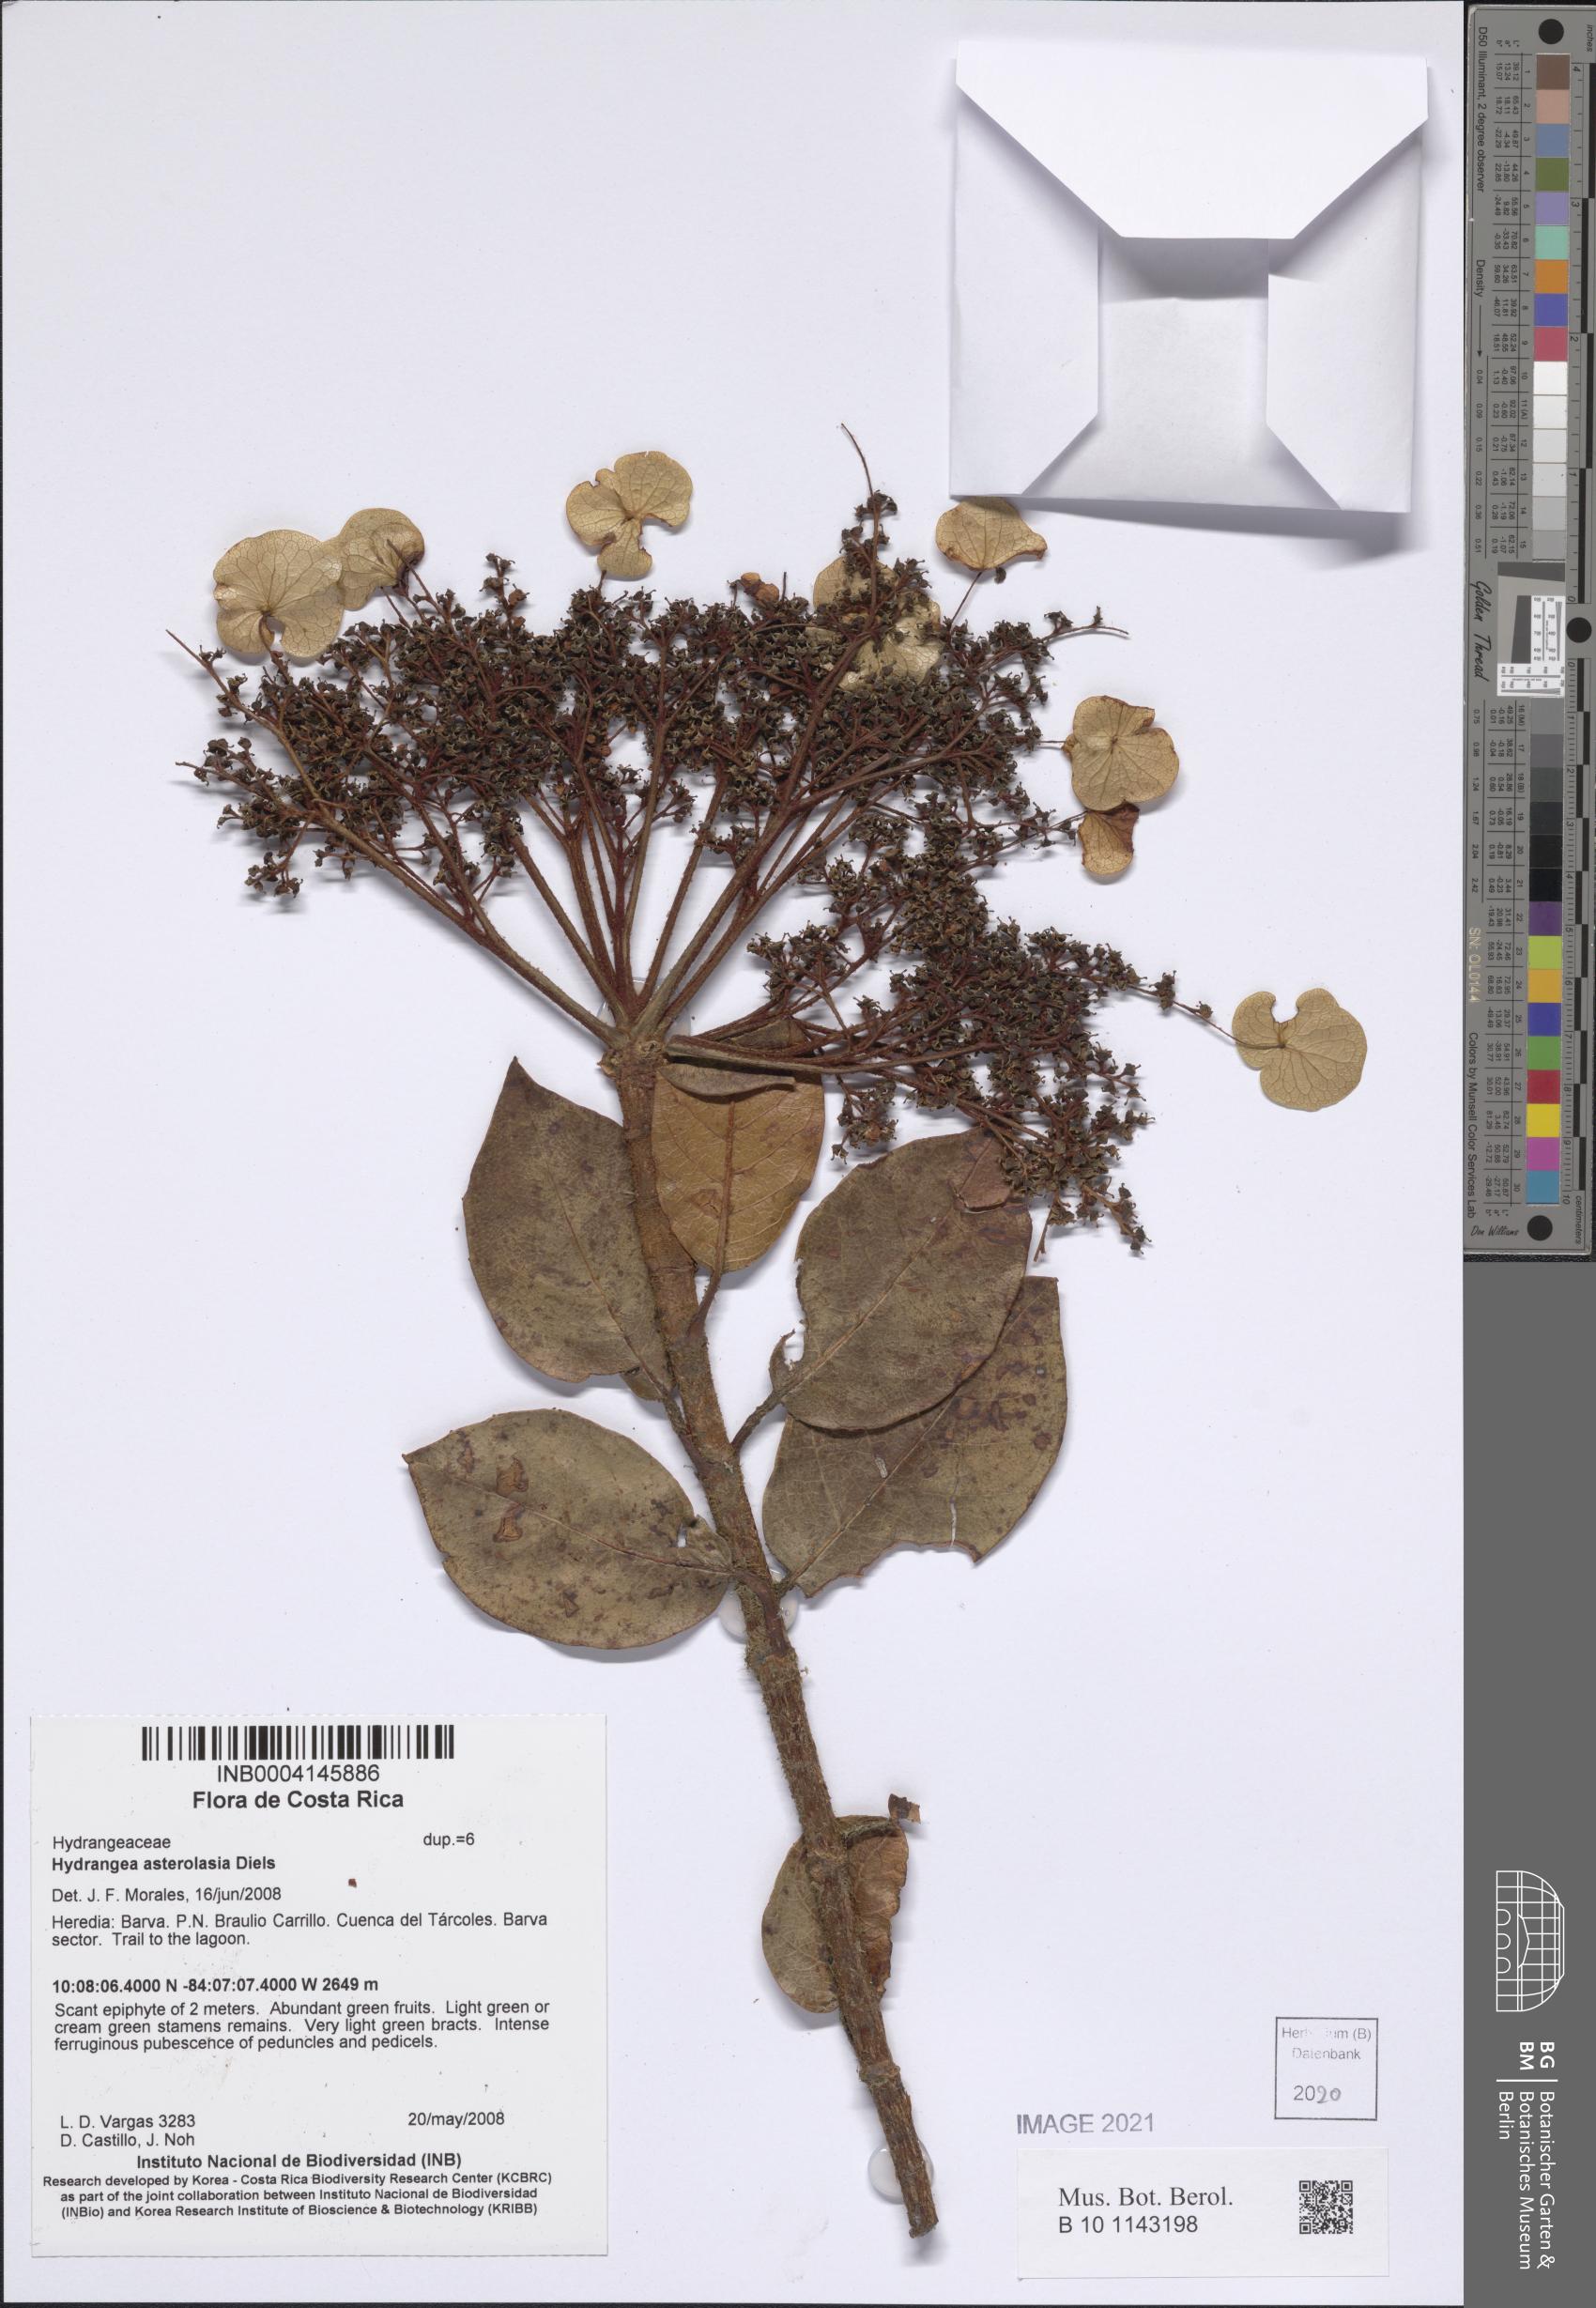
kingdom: Plantae
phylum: Tracheophyta
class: Magnoliopsida
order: Cornales
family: Hydrangeaceae
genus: Hydrangea
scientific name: Hydrangea asterolasia
